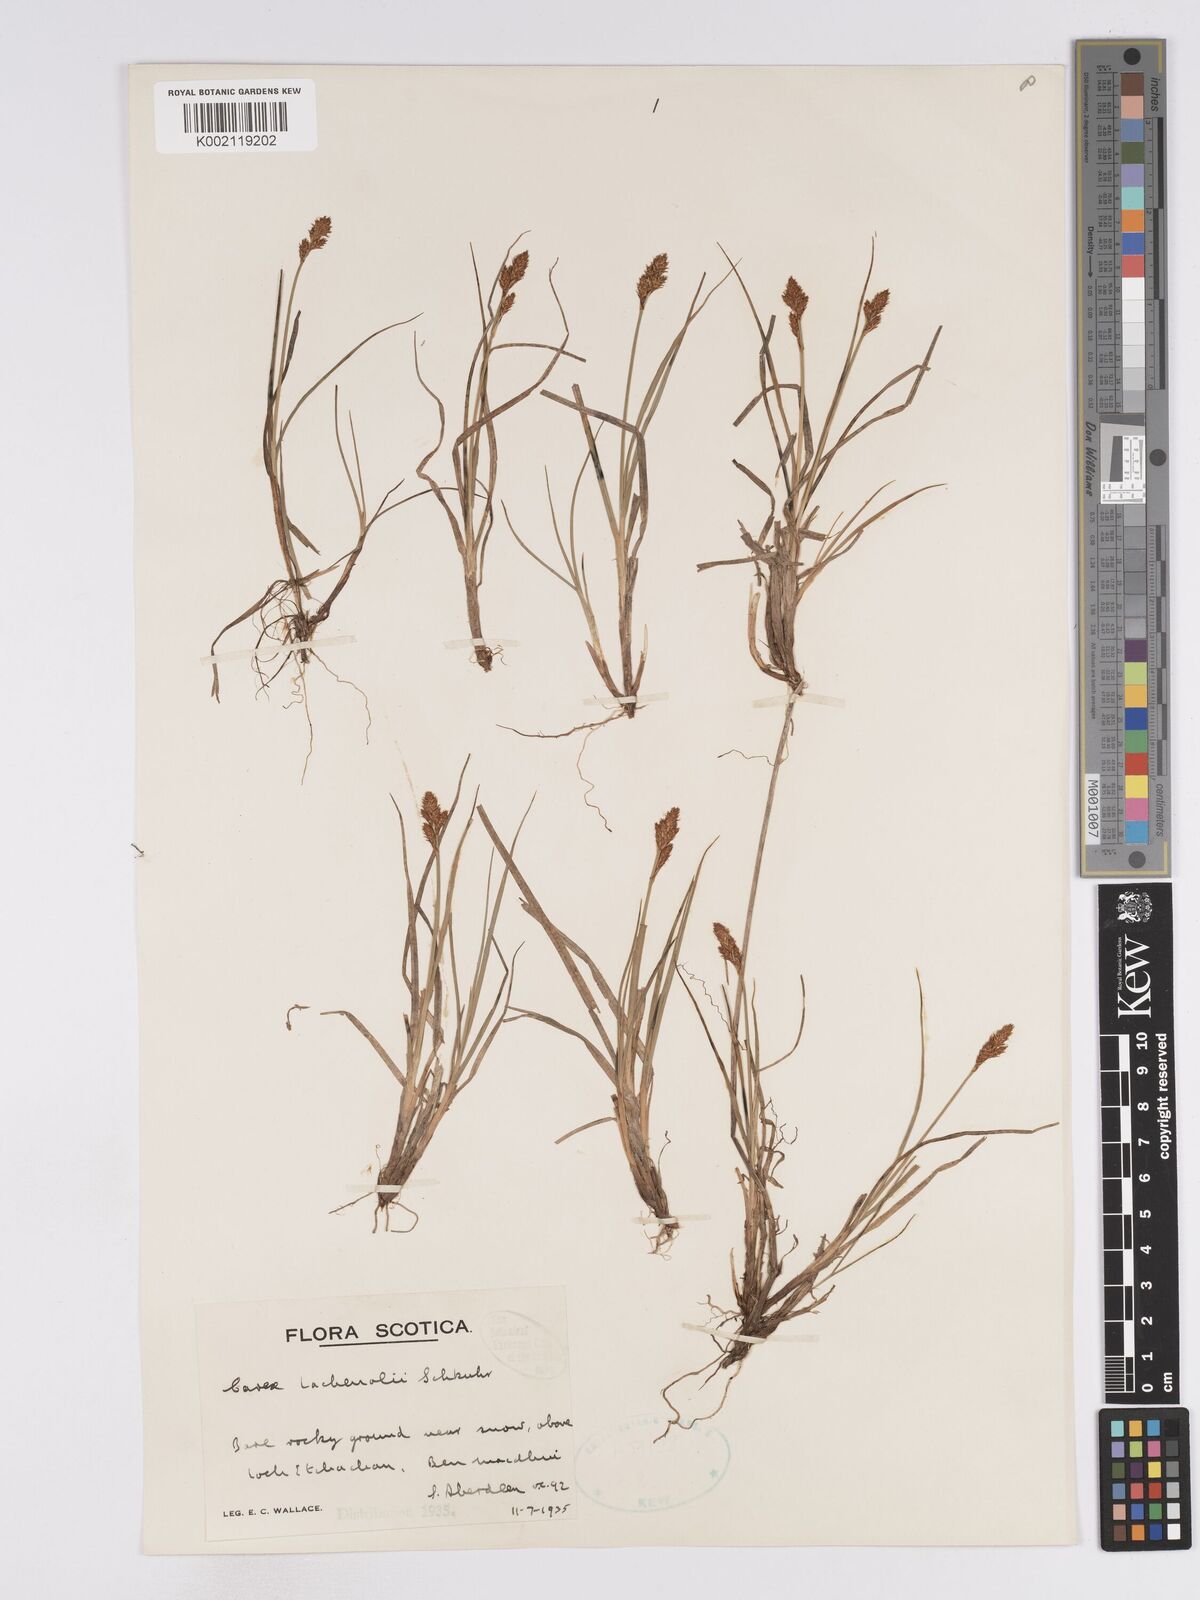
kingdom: Plantae
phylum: Tracheophyta
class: Liliopsida
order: Poales
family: Cyperaceae
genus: Carex
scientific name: Carex lachenalii
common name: Hare's-foot sedge
